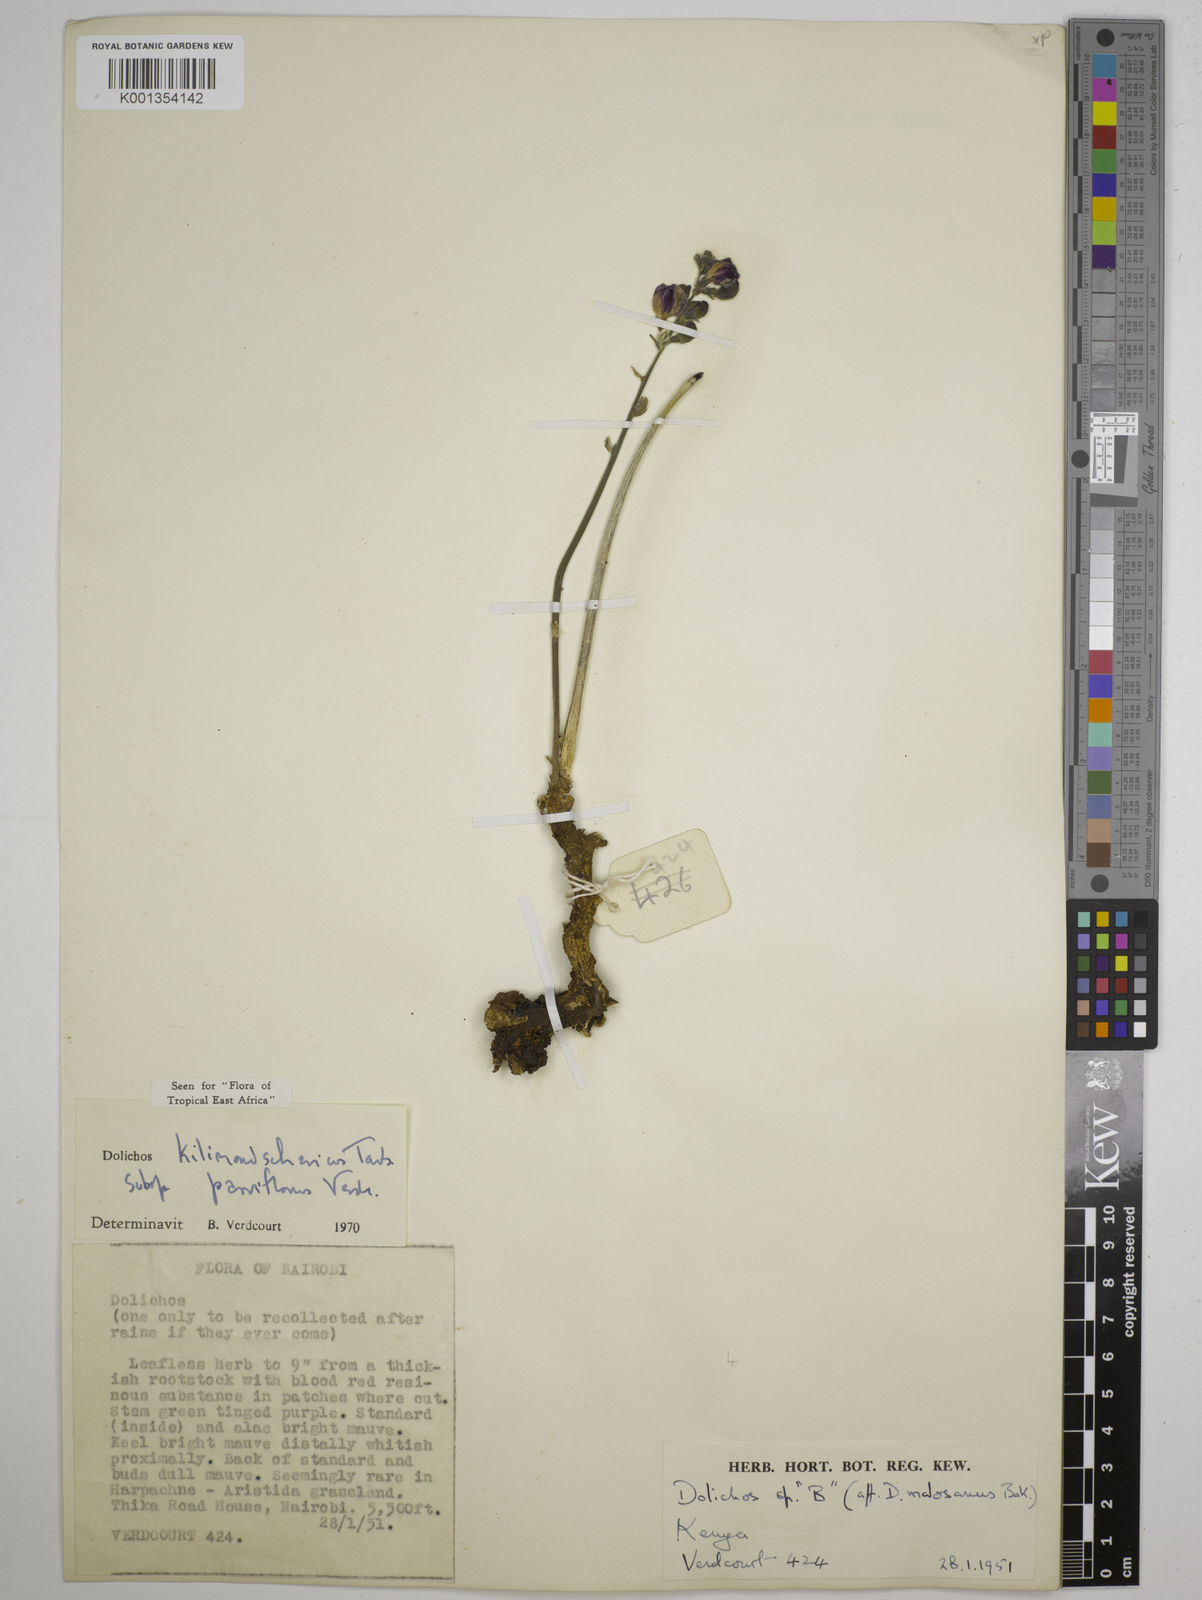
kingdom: Plantae
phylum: Tracheophyta
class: Magnoliopsida
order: Fabales
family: Fabaceae
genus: Dolichos
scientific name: Dolichos
